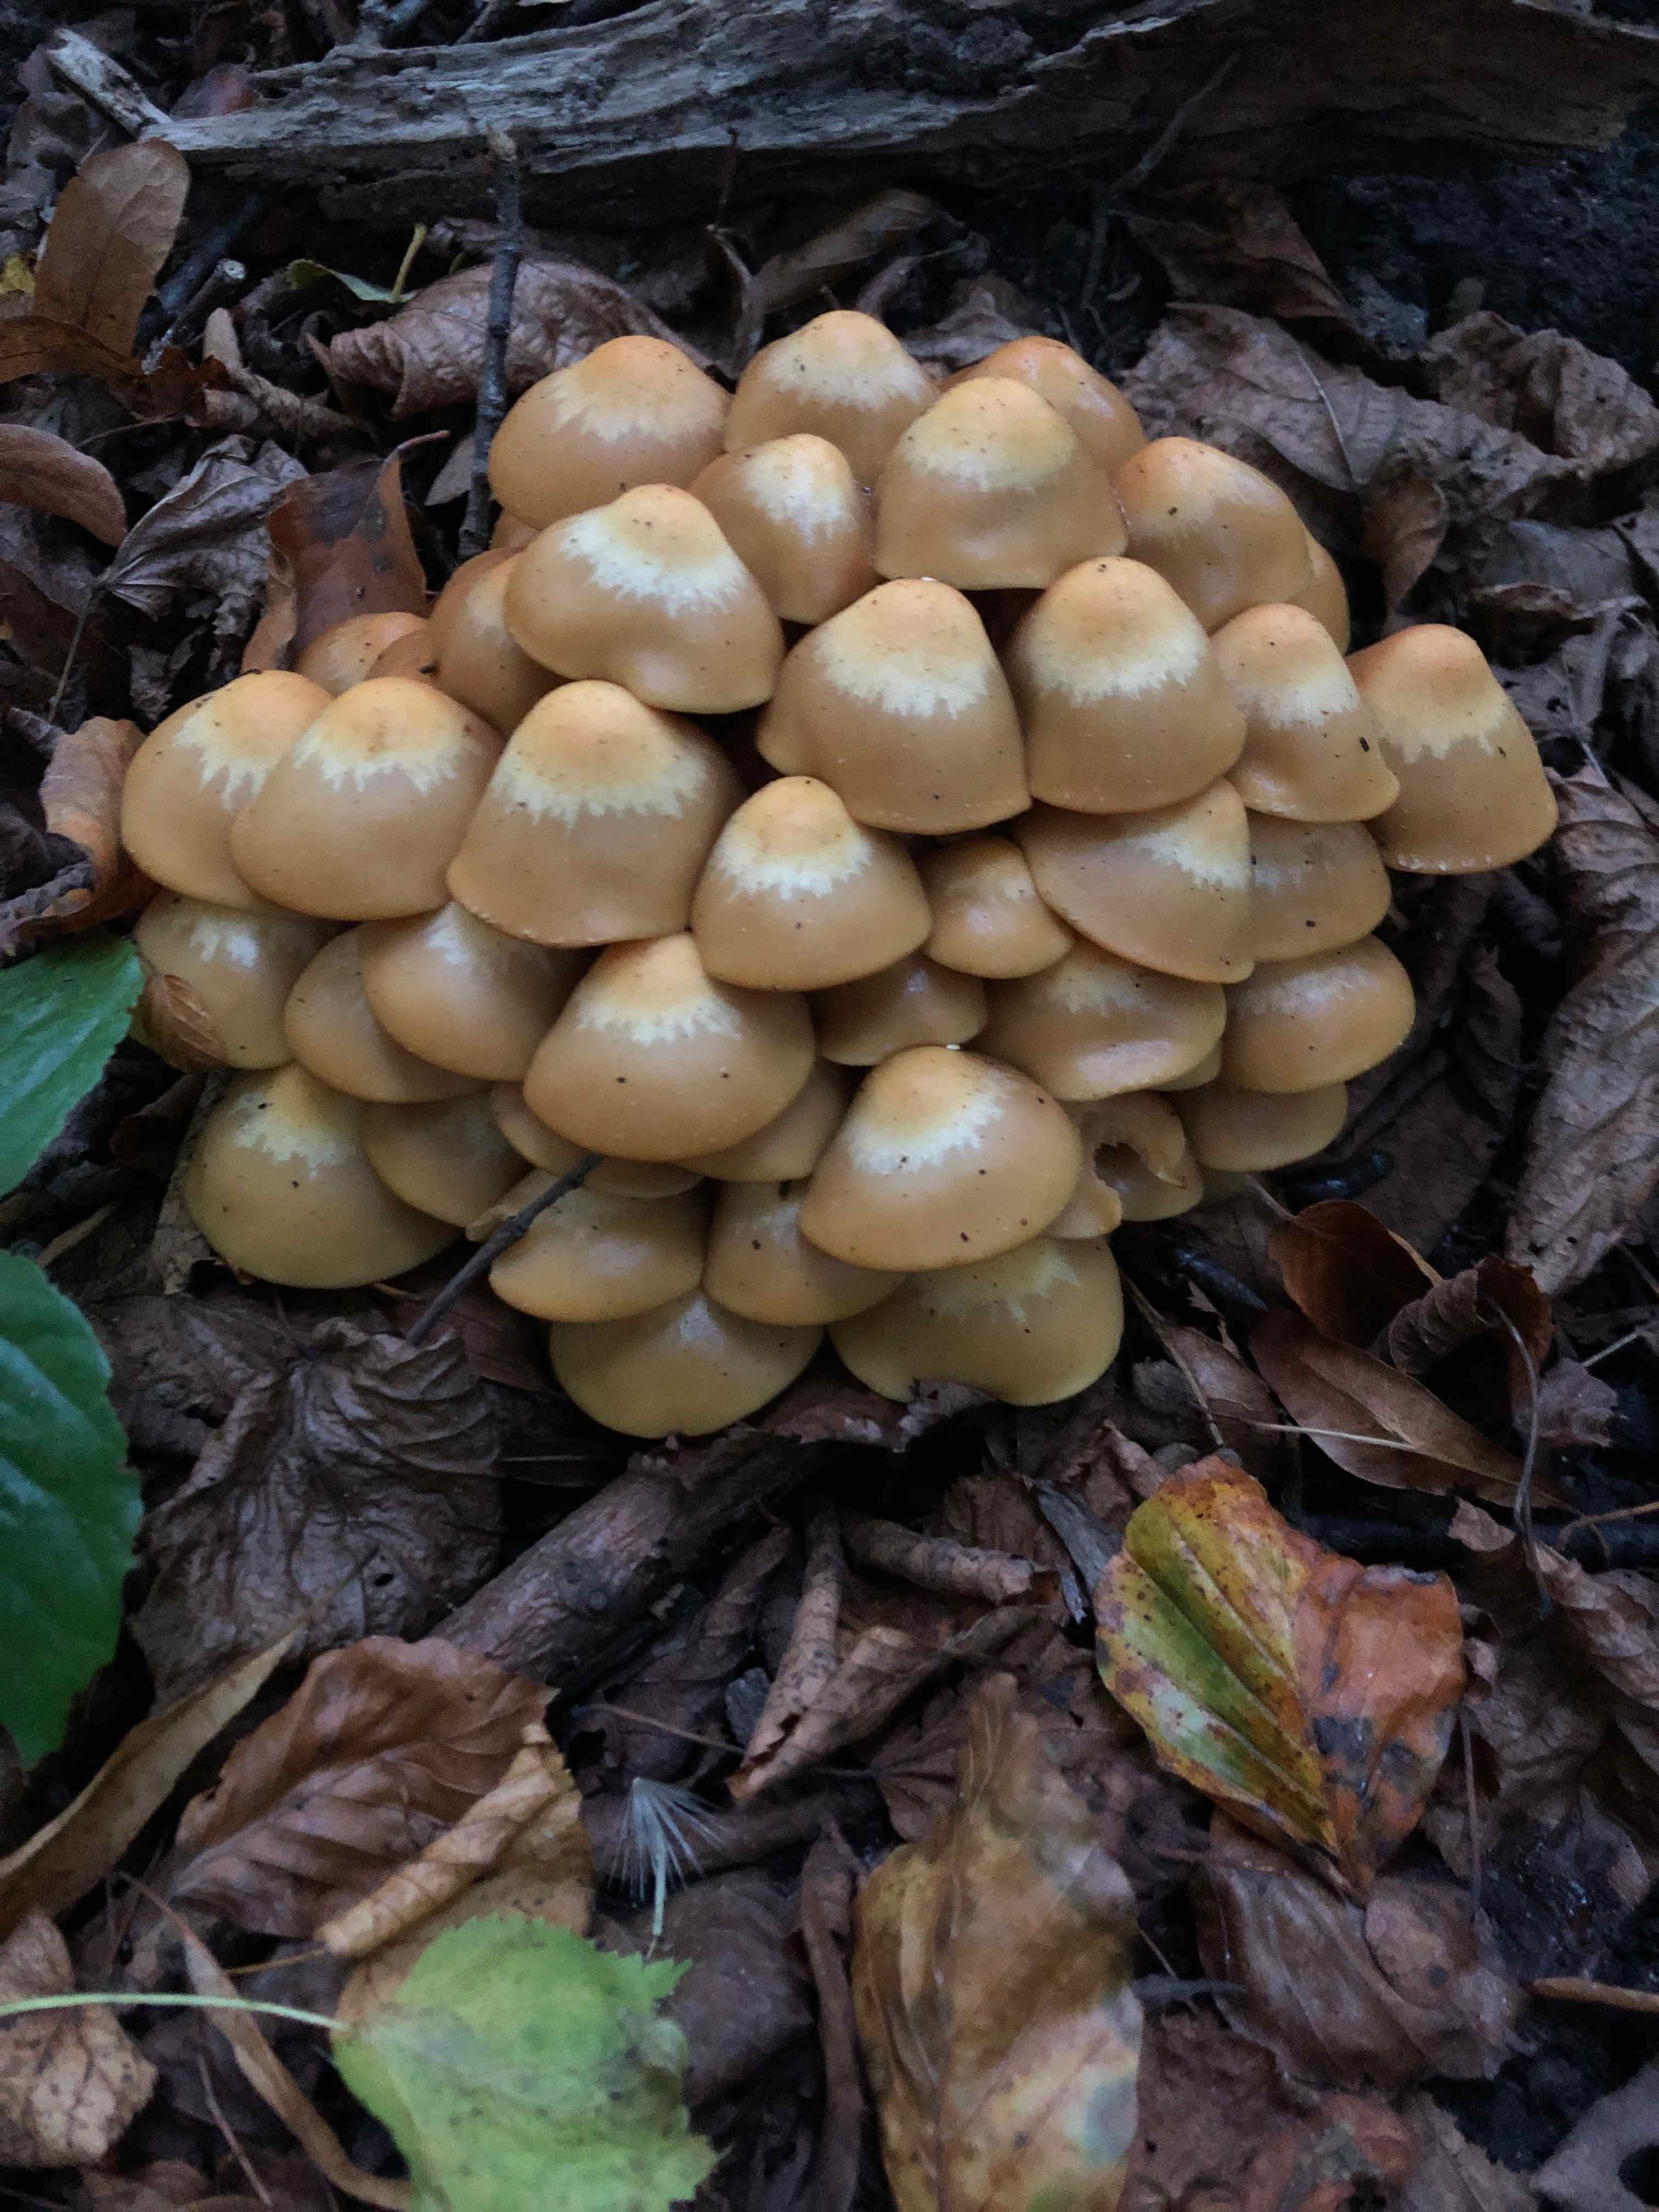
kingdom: Fungi
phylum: Basidiomycota
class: Agaricomycetes
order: Agaricales
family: Strophariaceae
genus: Kuehneromyces
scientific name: Kuehneromyces mutabilis
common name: foranderlig skælhat
